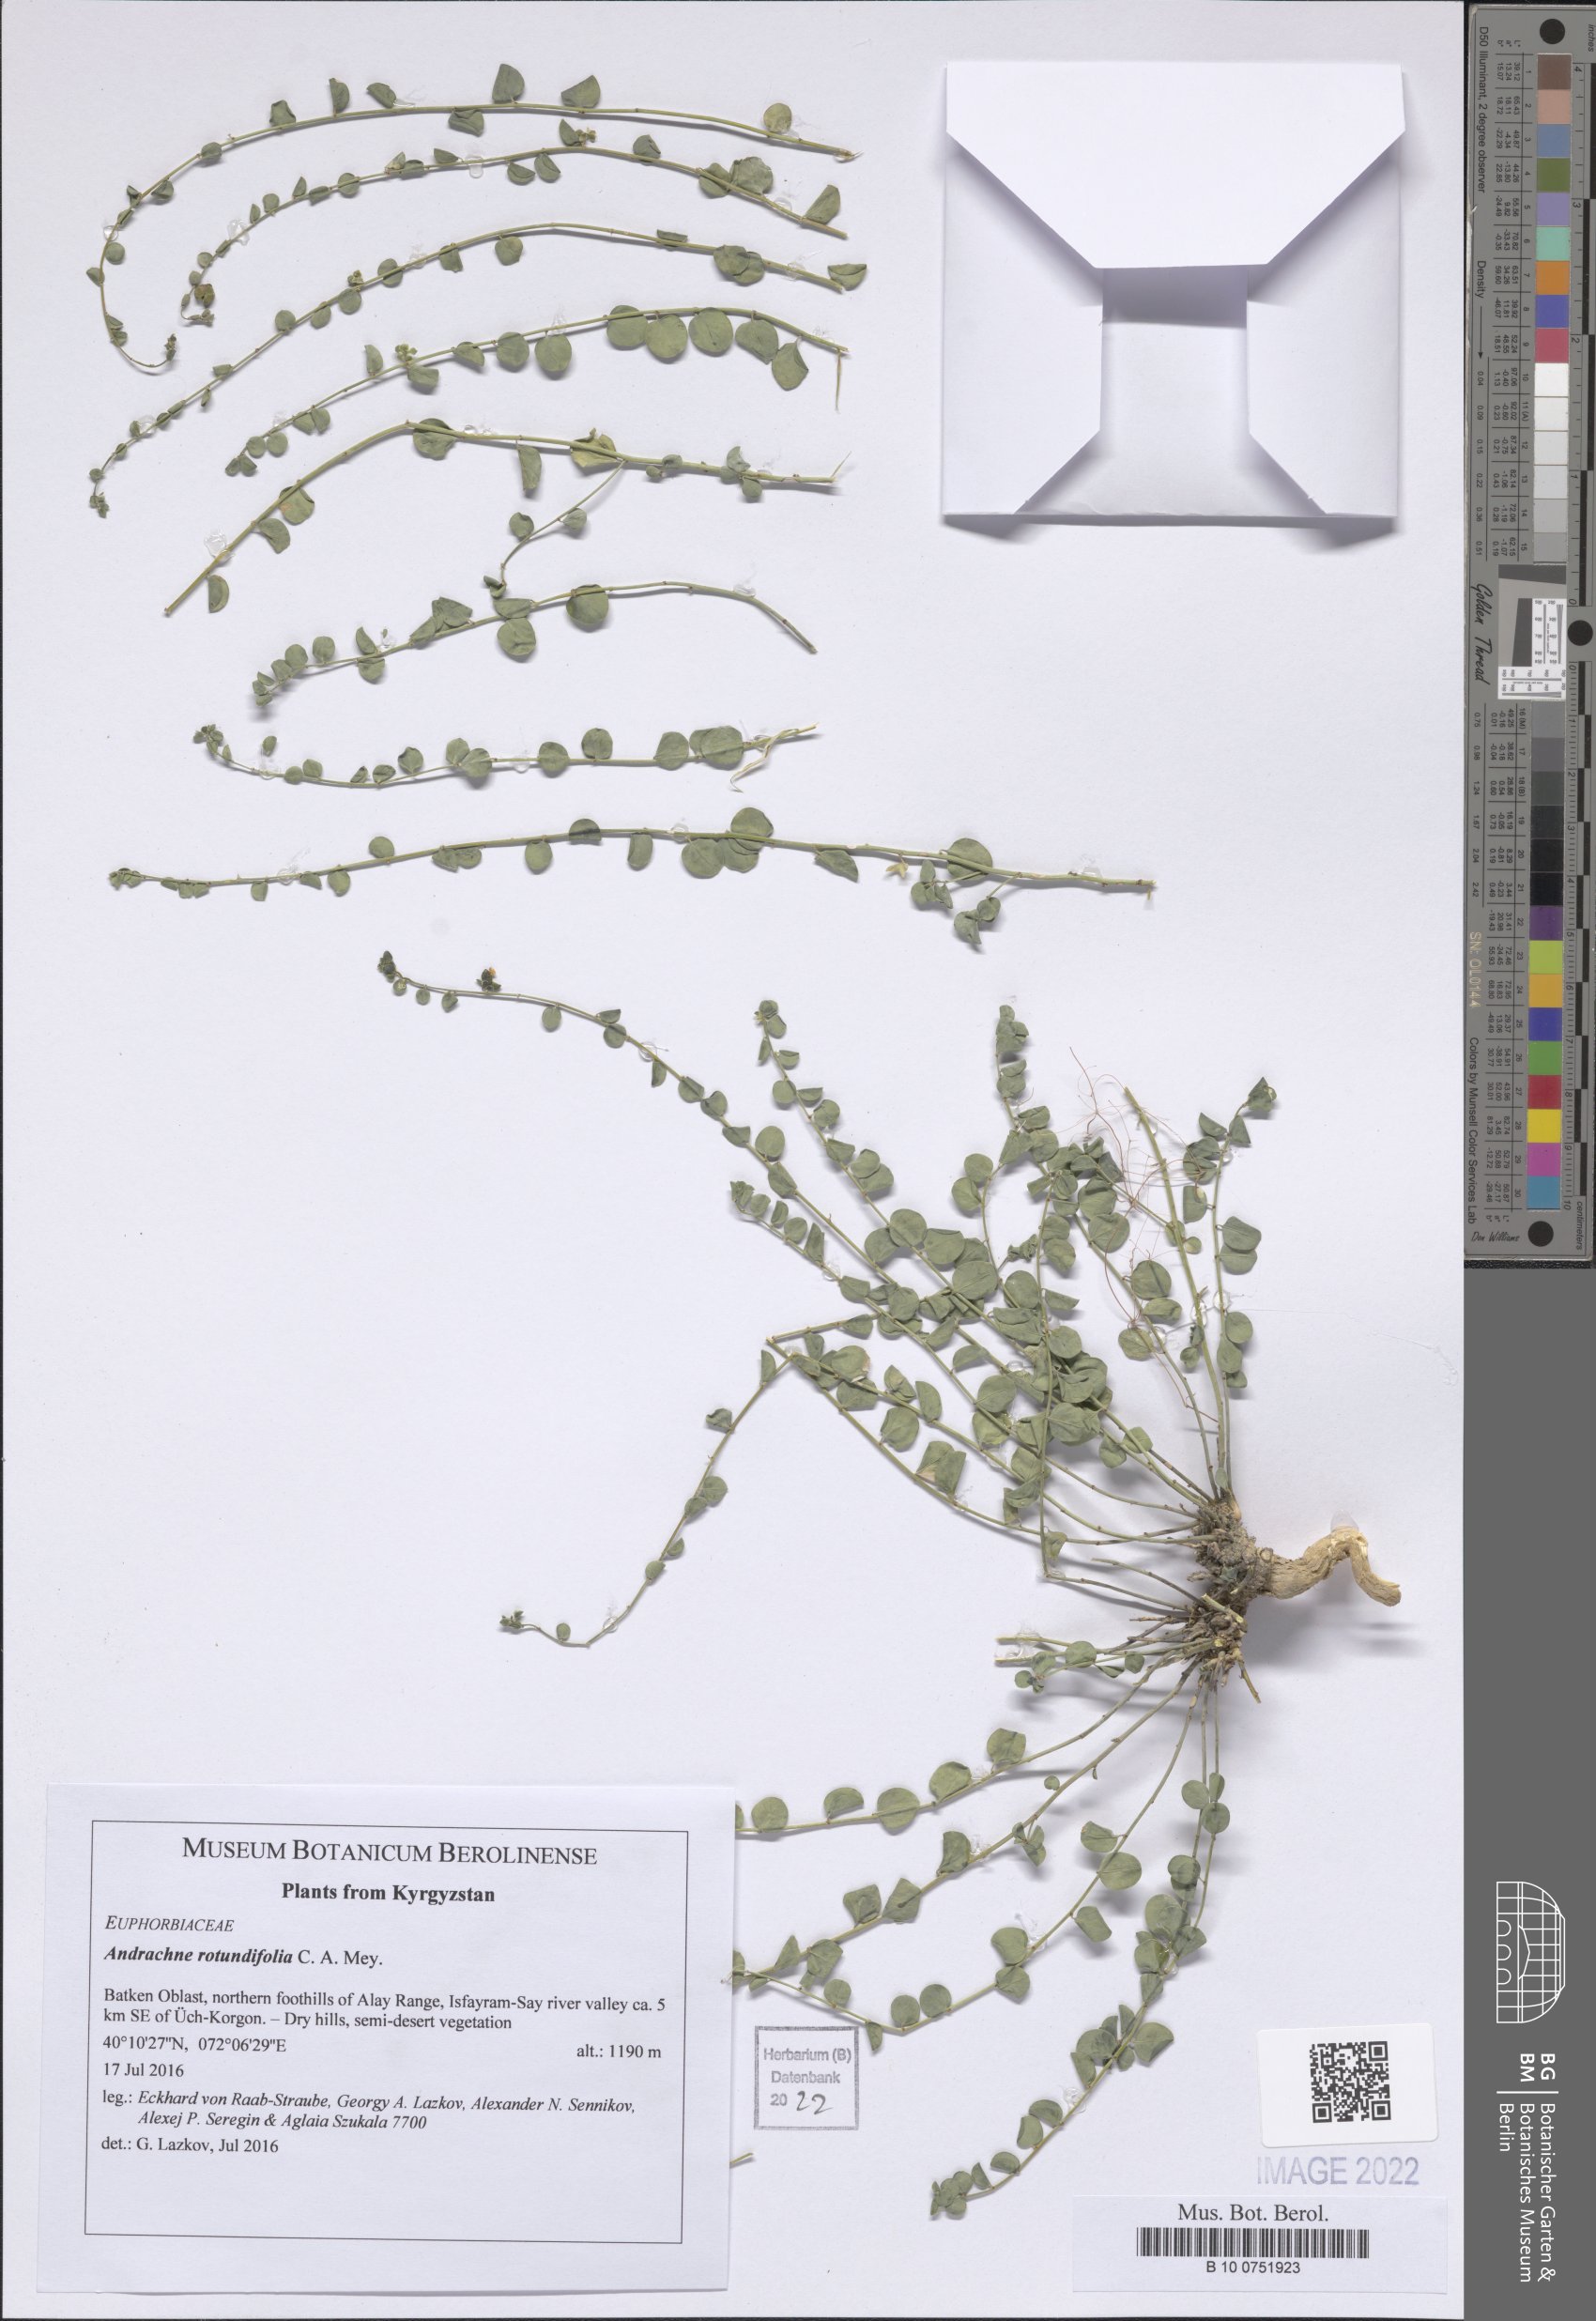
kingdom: Plantae
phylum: Tracheophyta
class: Magnoliopsida
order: Malpighiales
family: Phyllanthaceae
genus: Andrachne
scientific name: Andrachne telephioides
